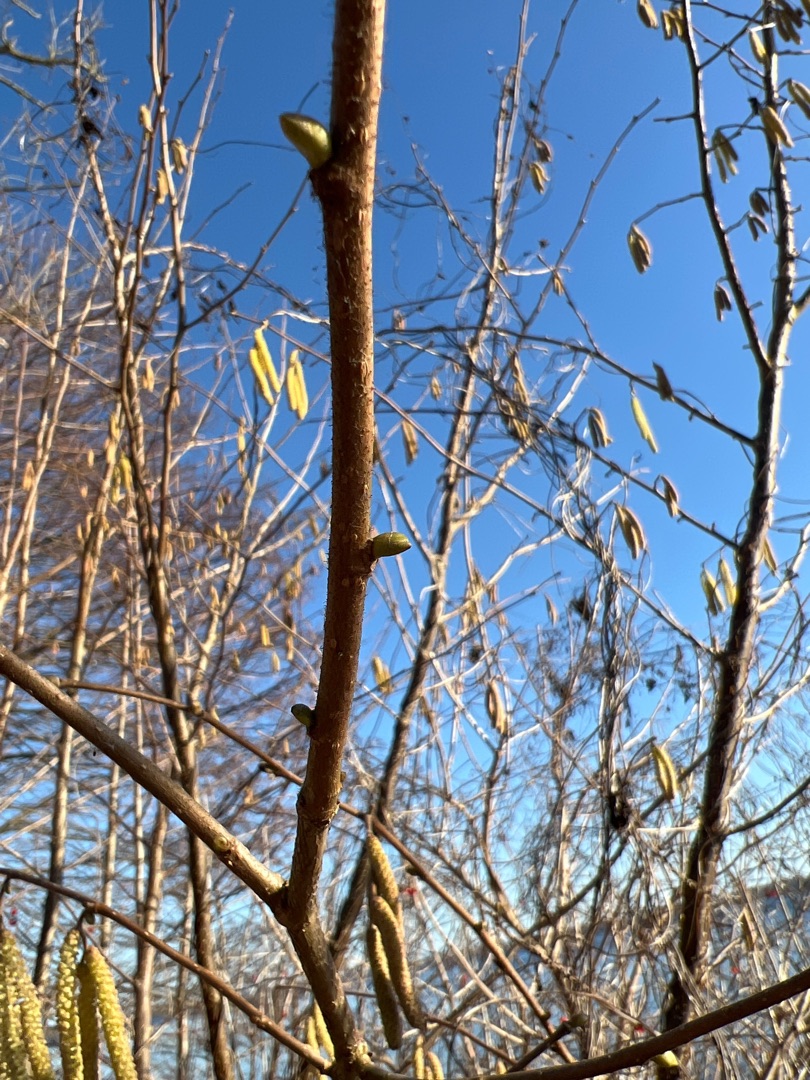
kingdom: Plantae
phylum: Tracheophyta
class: Magnoliopsida
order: Fagales
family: Betulaceae
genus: Corylus
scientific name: Corylus avellana
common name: Hassel
